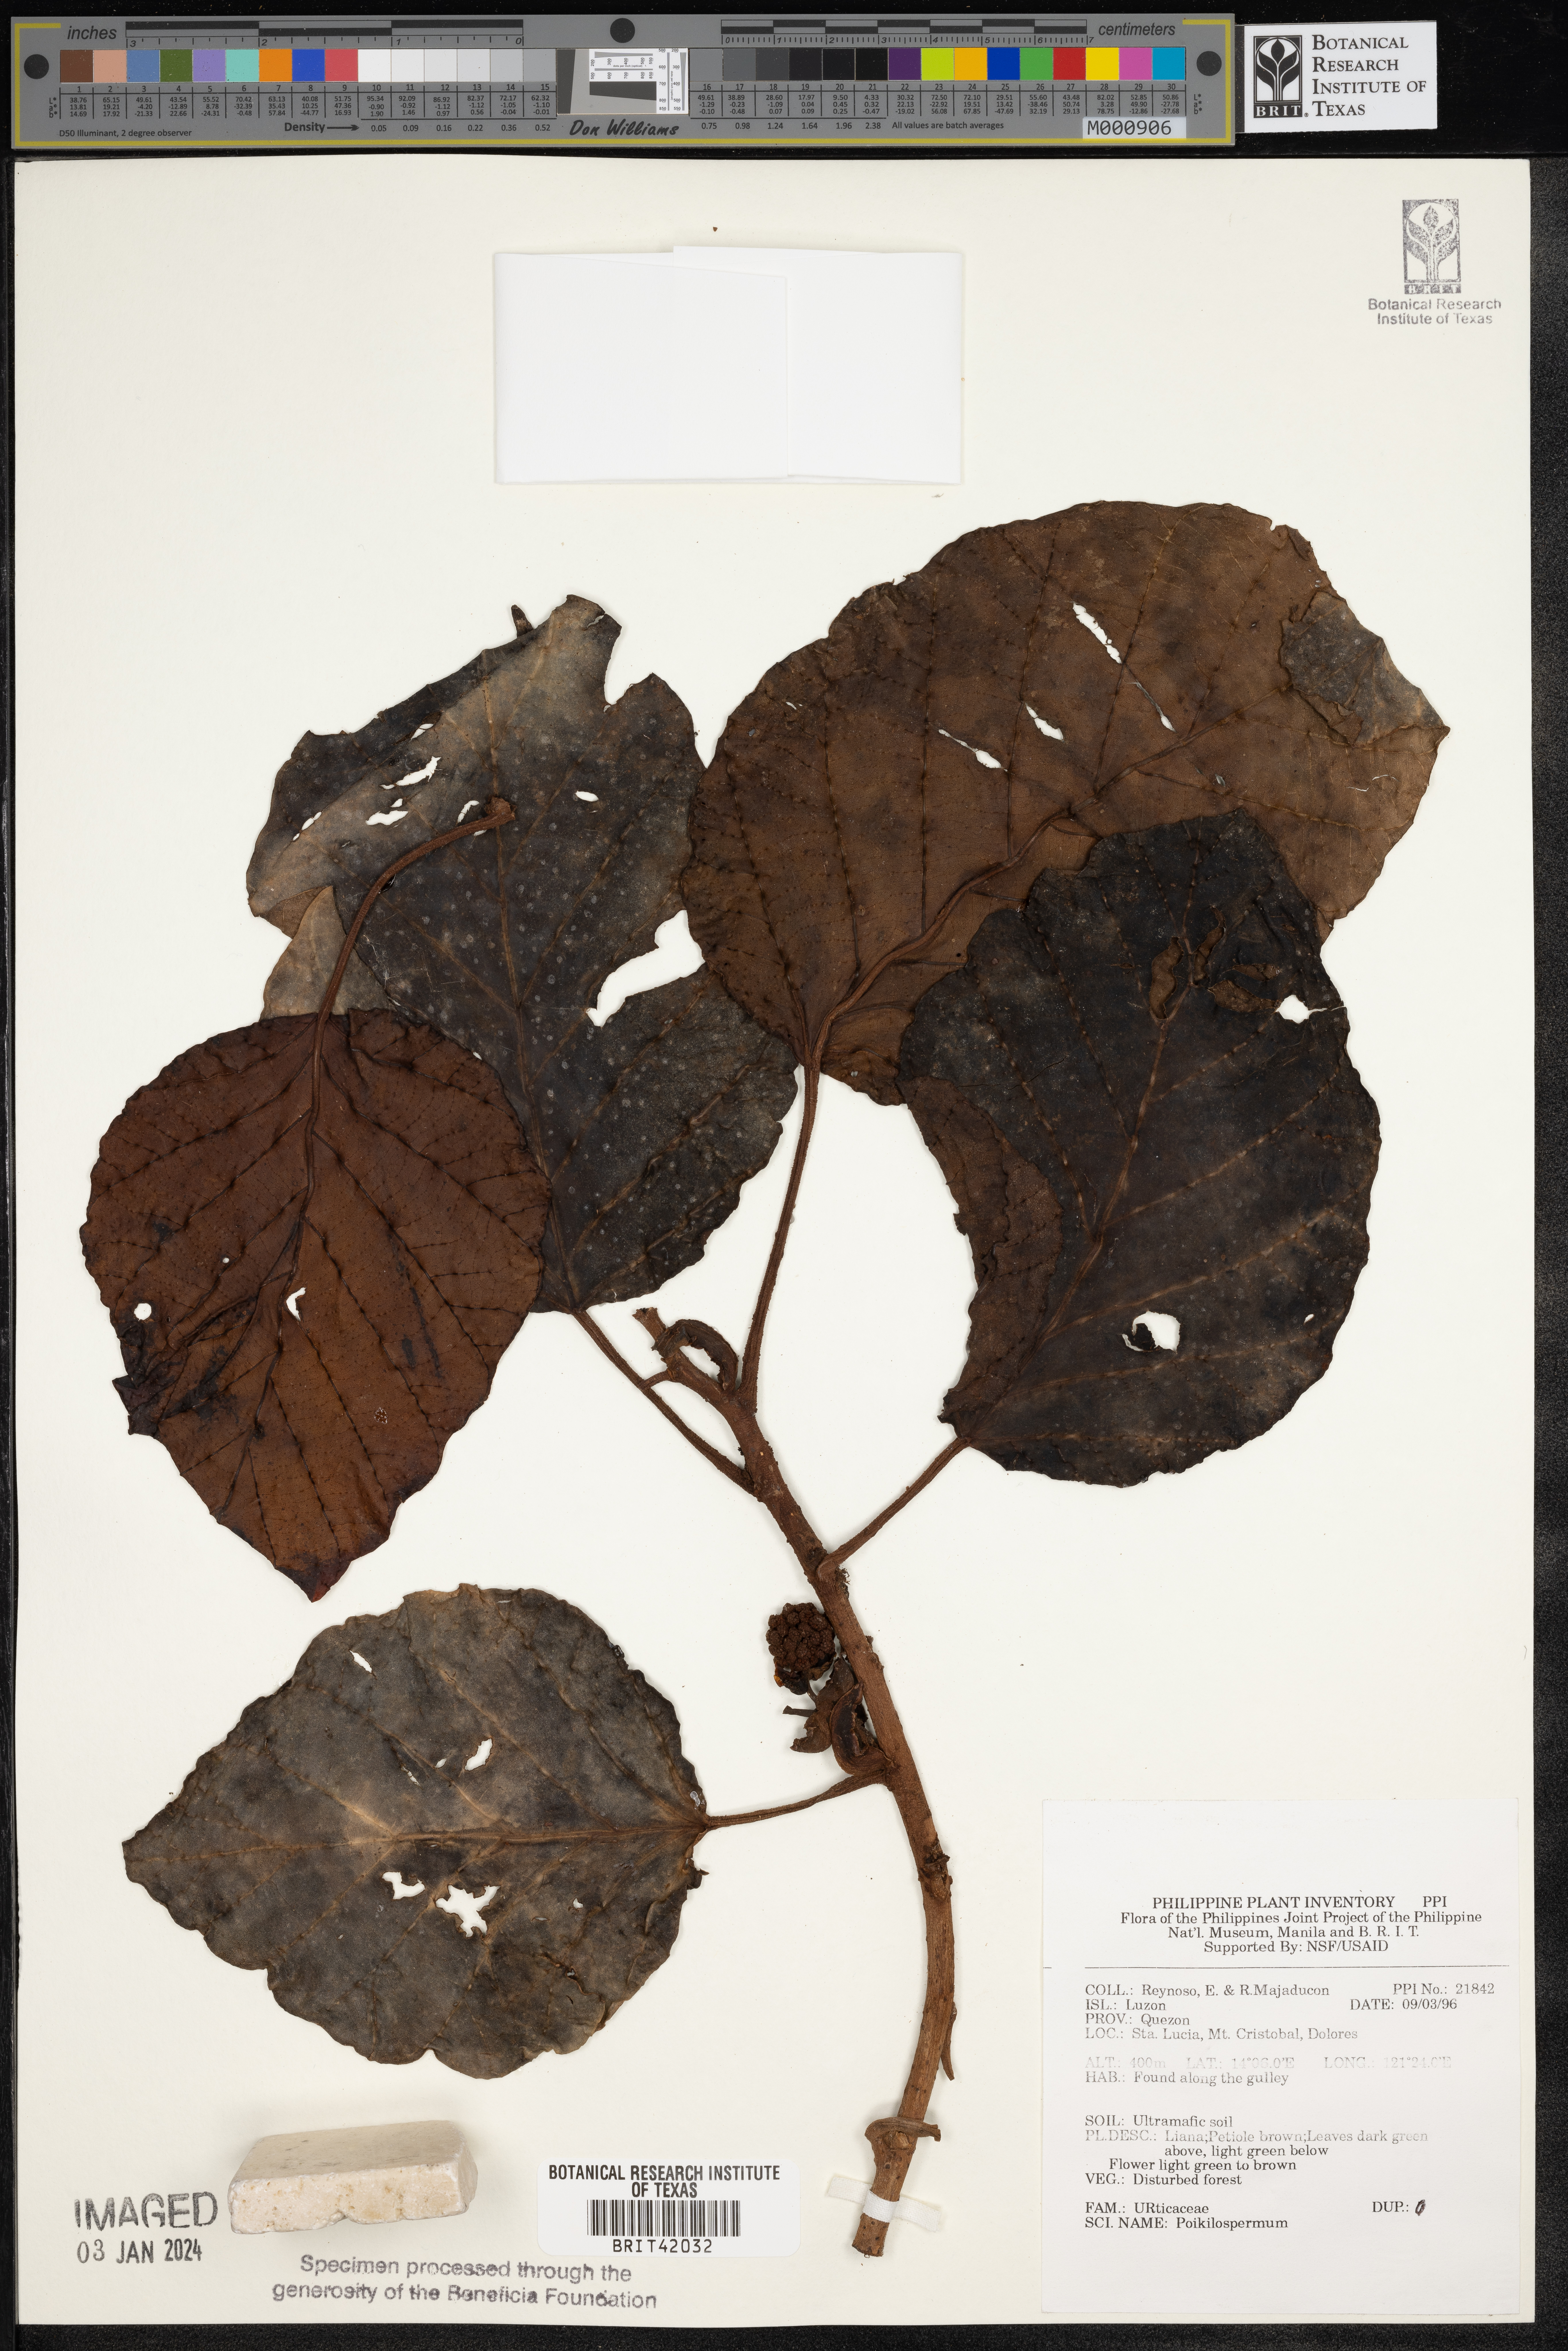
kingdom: Plantae
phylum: Tracheophyta
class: Magnoliopsida
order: Rosales
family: Urticaceae
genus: Poikilospermum
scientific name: Poikilospermum
